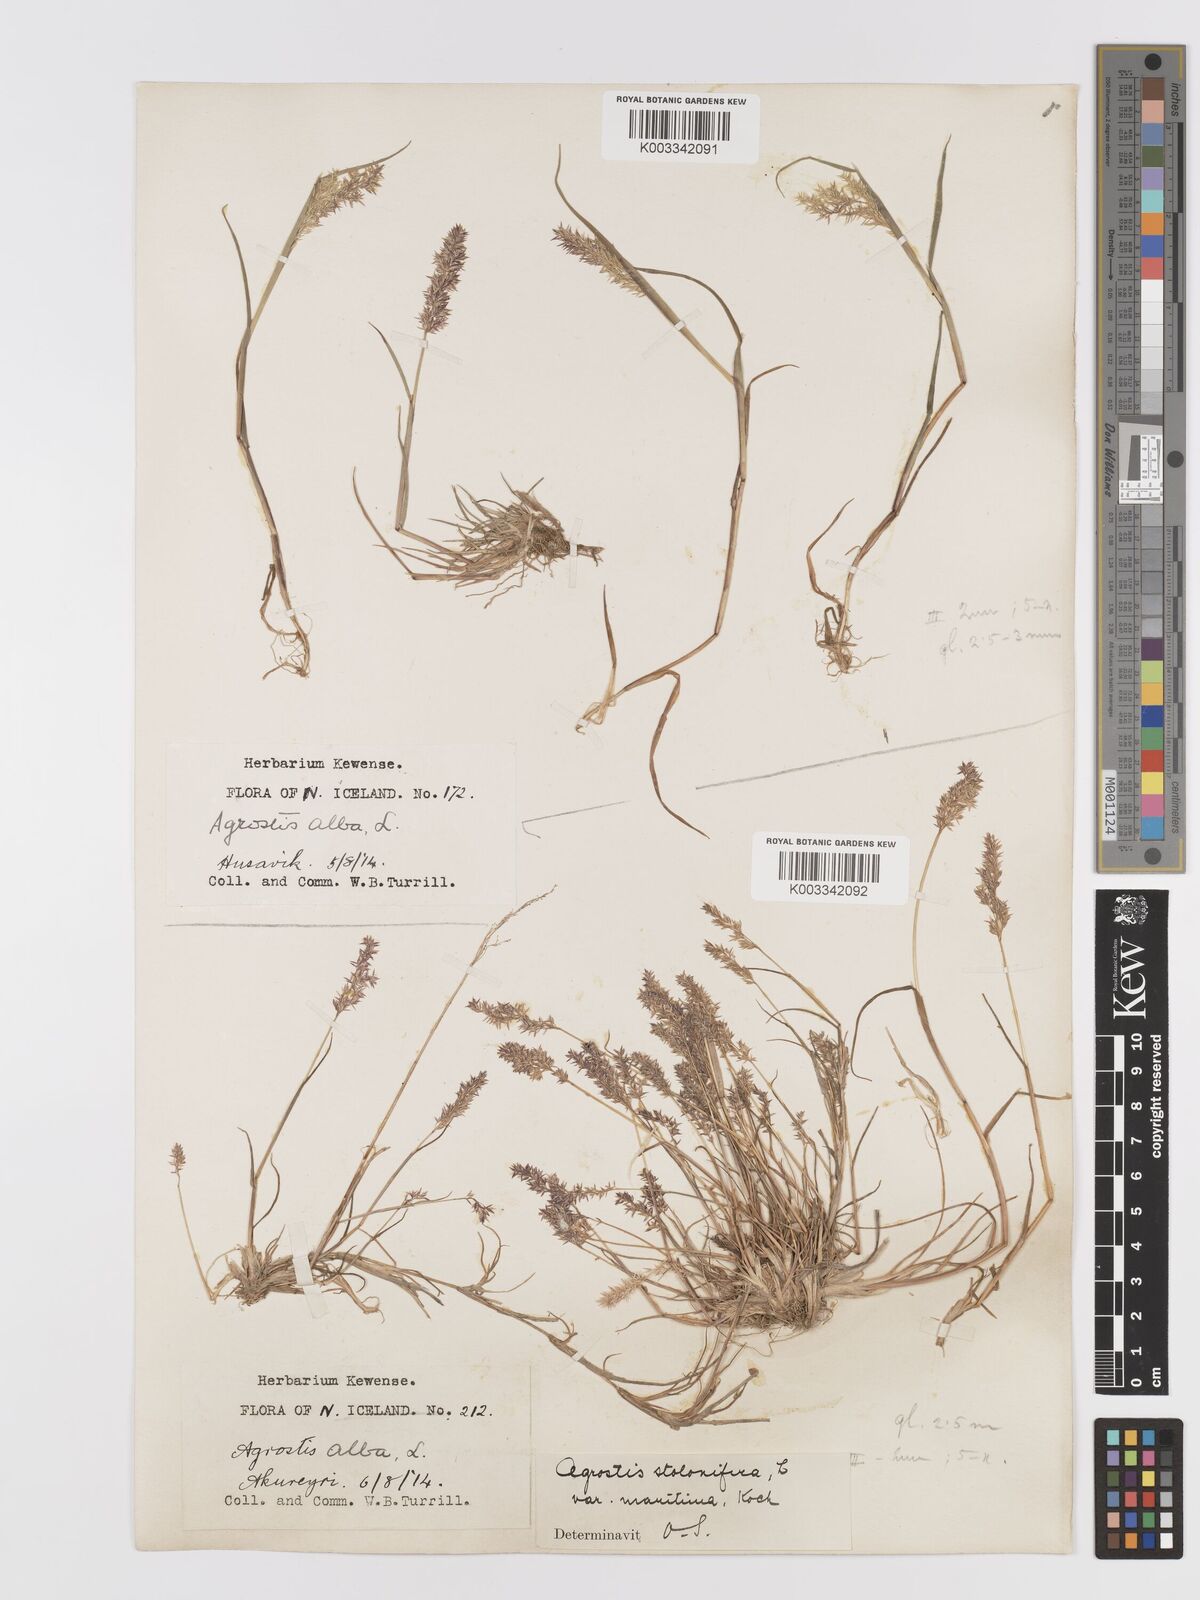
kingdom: Plantae
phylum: Tracheophyta
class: Liliopsida
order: Poales
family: Poaceae
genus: Agrostis
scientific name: Agrostis stolonifera
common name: Creeping bentgrass
